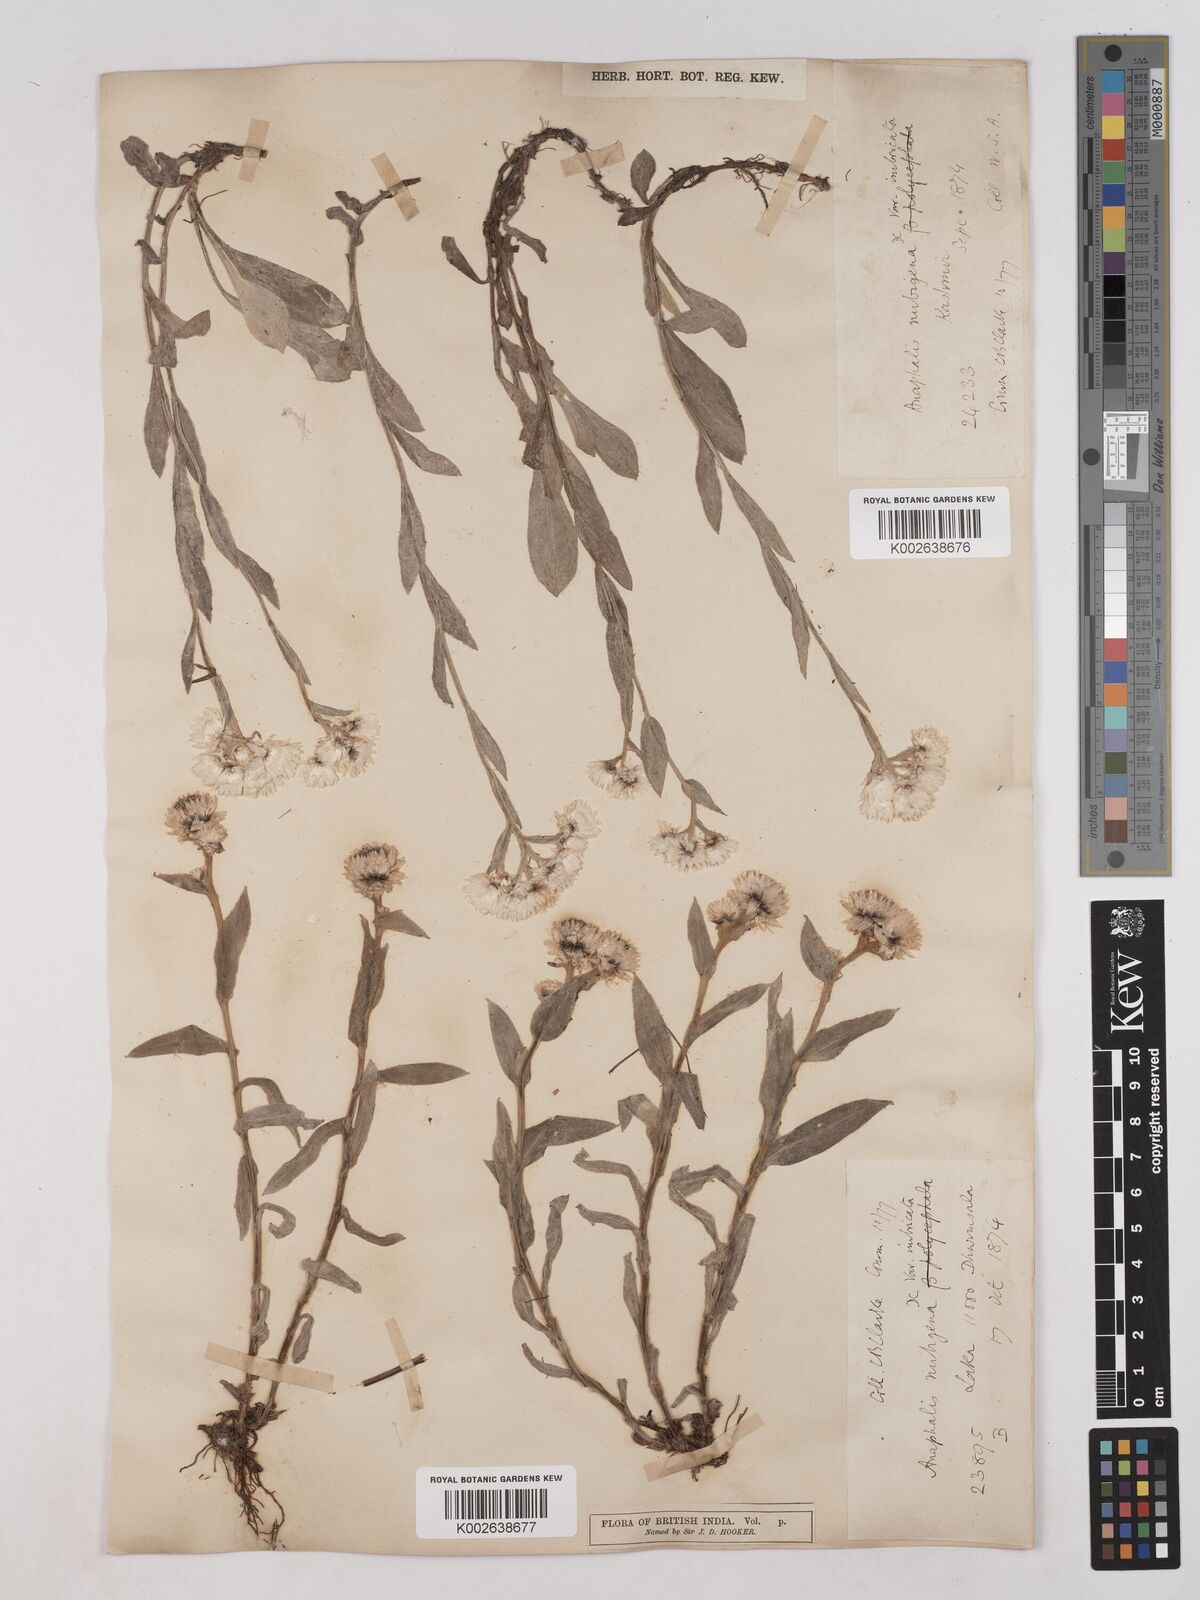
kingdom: Plantae
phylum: Tracheophyta
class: Magnoliopsida
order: Asterales
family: Asteraceae
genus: Anaphalis
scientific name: Anaphalis nepalensis
